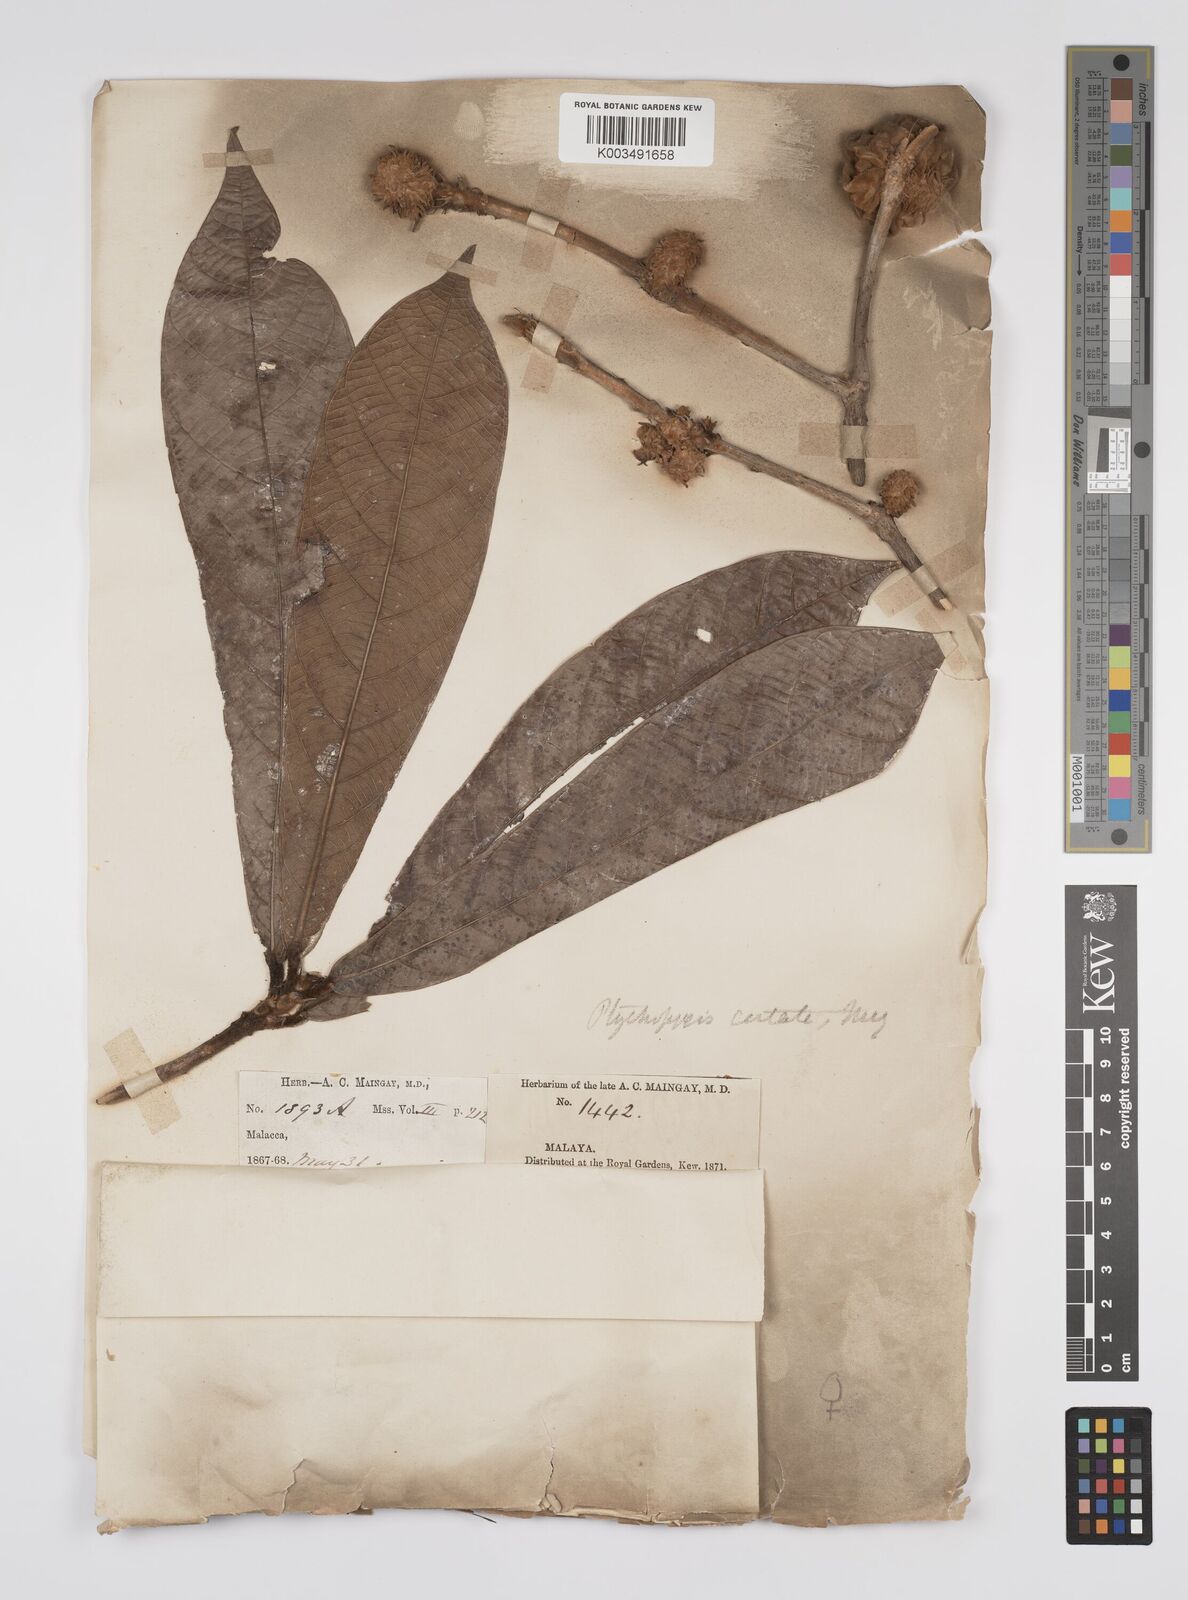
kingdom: Plantae
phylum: Tracheophyta
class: Magnoliopsida
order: Malpighiales
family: Euphorbiaceae
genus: Ptychopyxis
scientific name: Ptychopyxis costata
